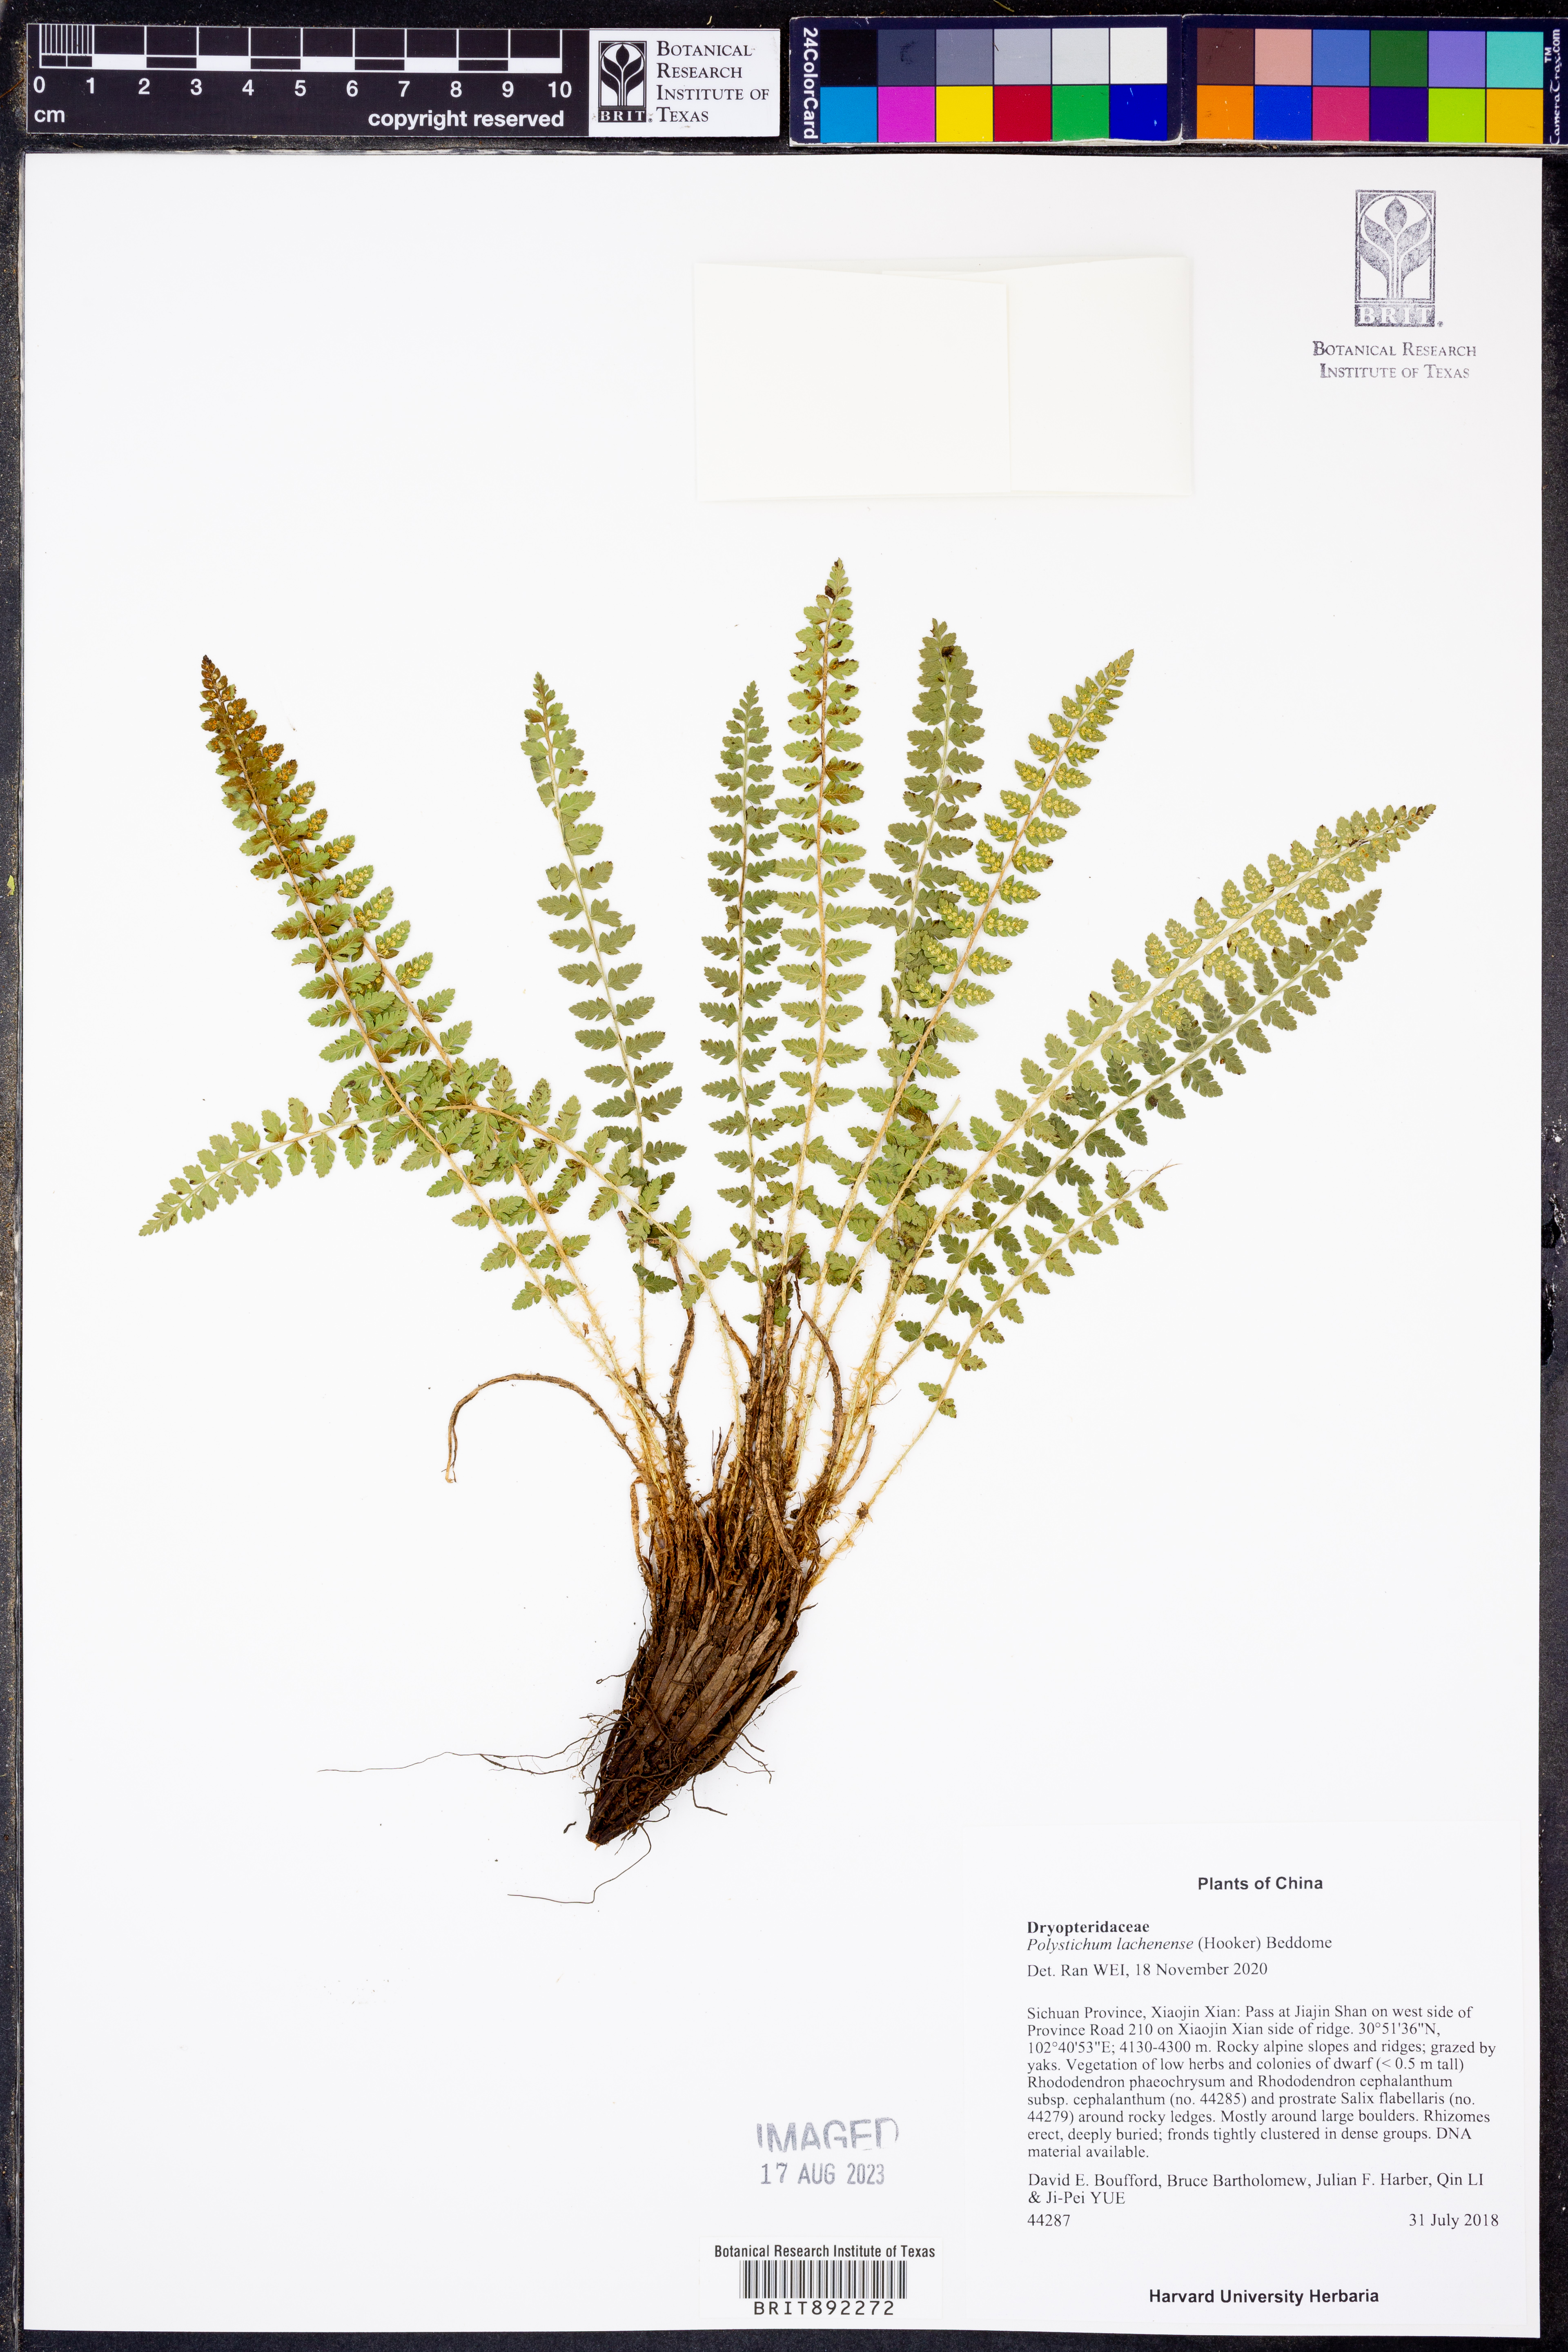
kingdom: Plantae
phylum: Tracheophyta
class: Polypodiopsida
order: Polypodiales
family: Dryopteridaceae
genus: Polystichum
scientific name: Polystichum lachenense
